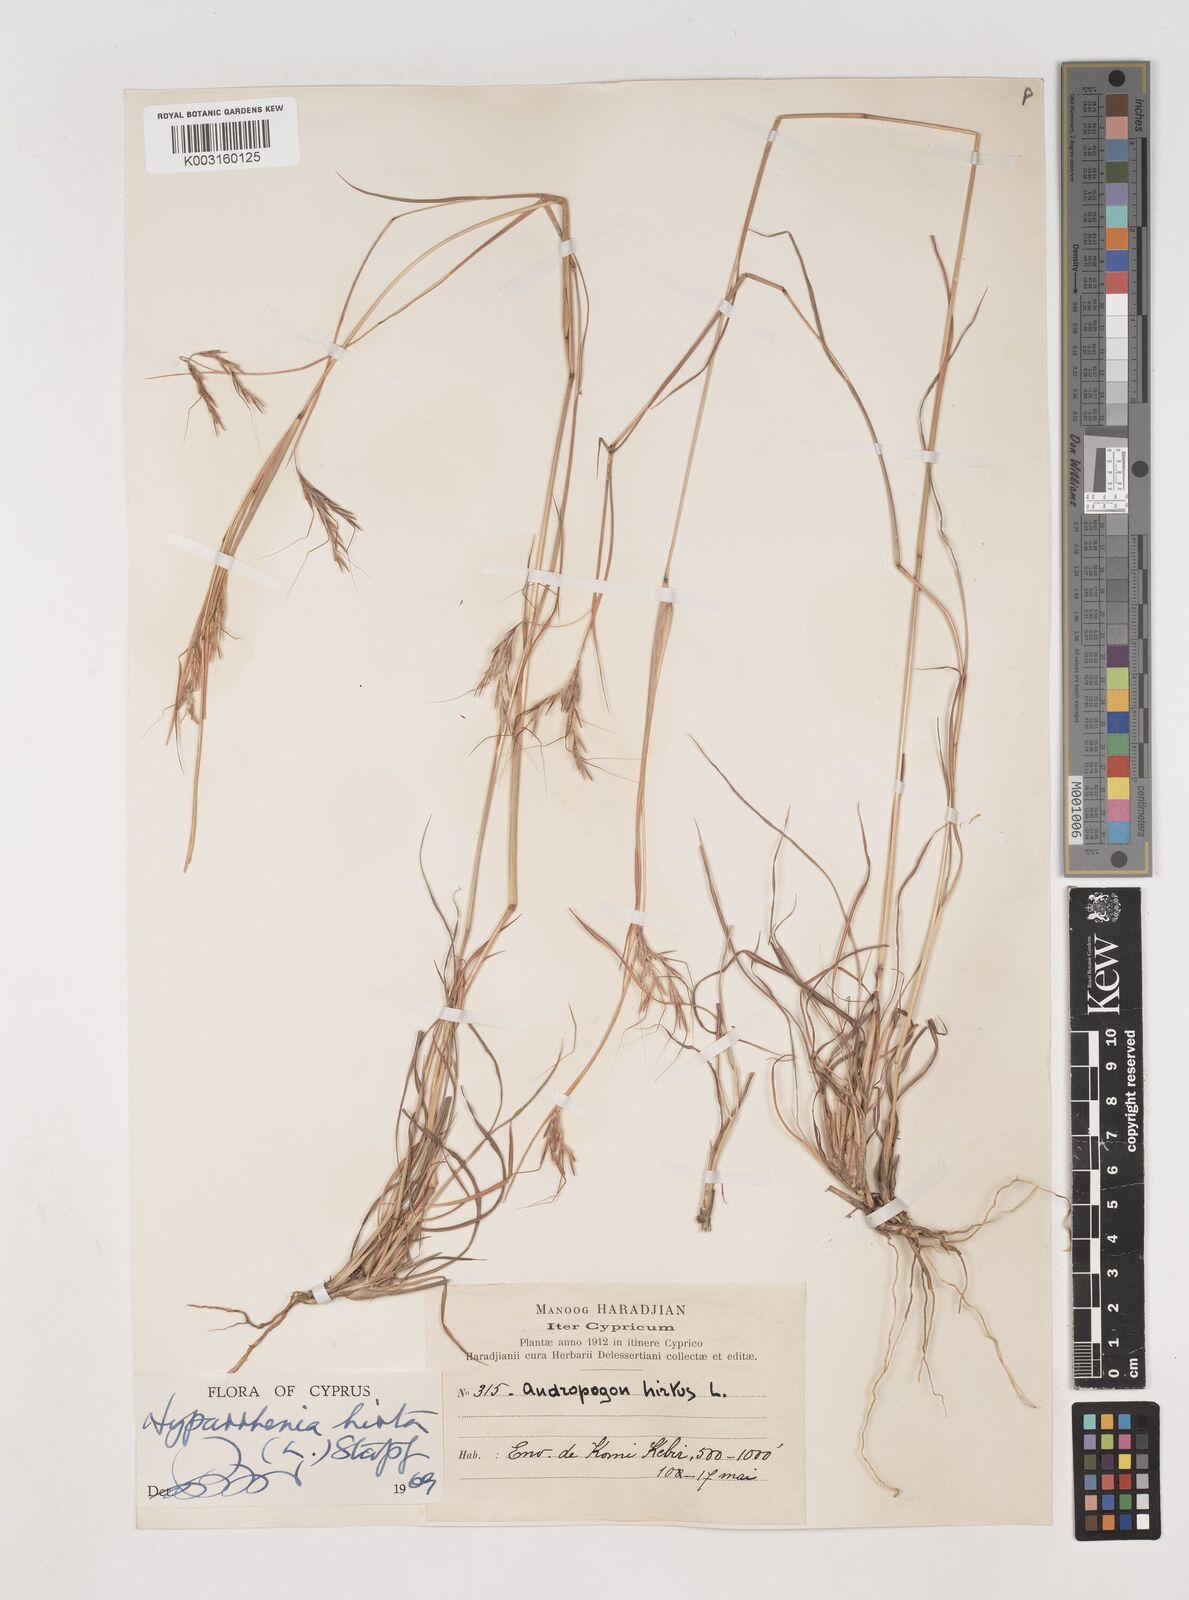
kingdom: Plantae
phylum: Tracheophyta
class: Liliopsida
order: Poales
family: Poaceae
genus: Hyparrhenia
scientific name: Hyparrhenia hirta
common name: Thatching grass
